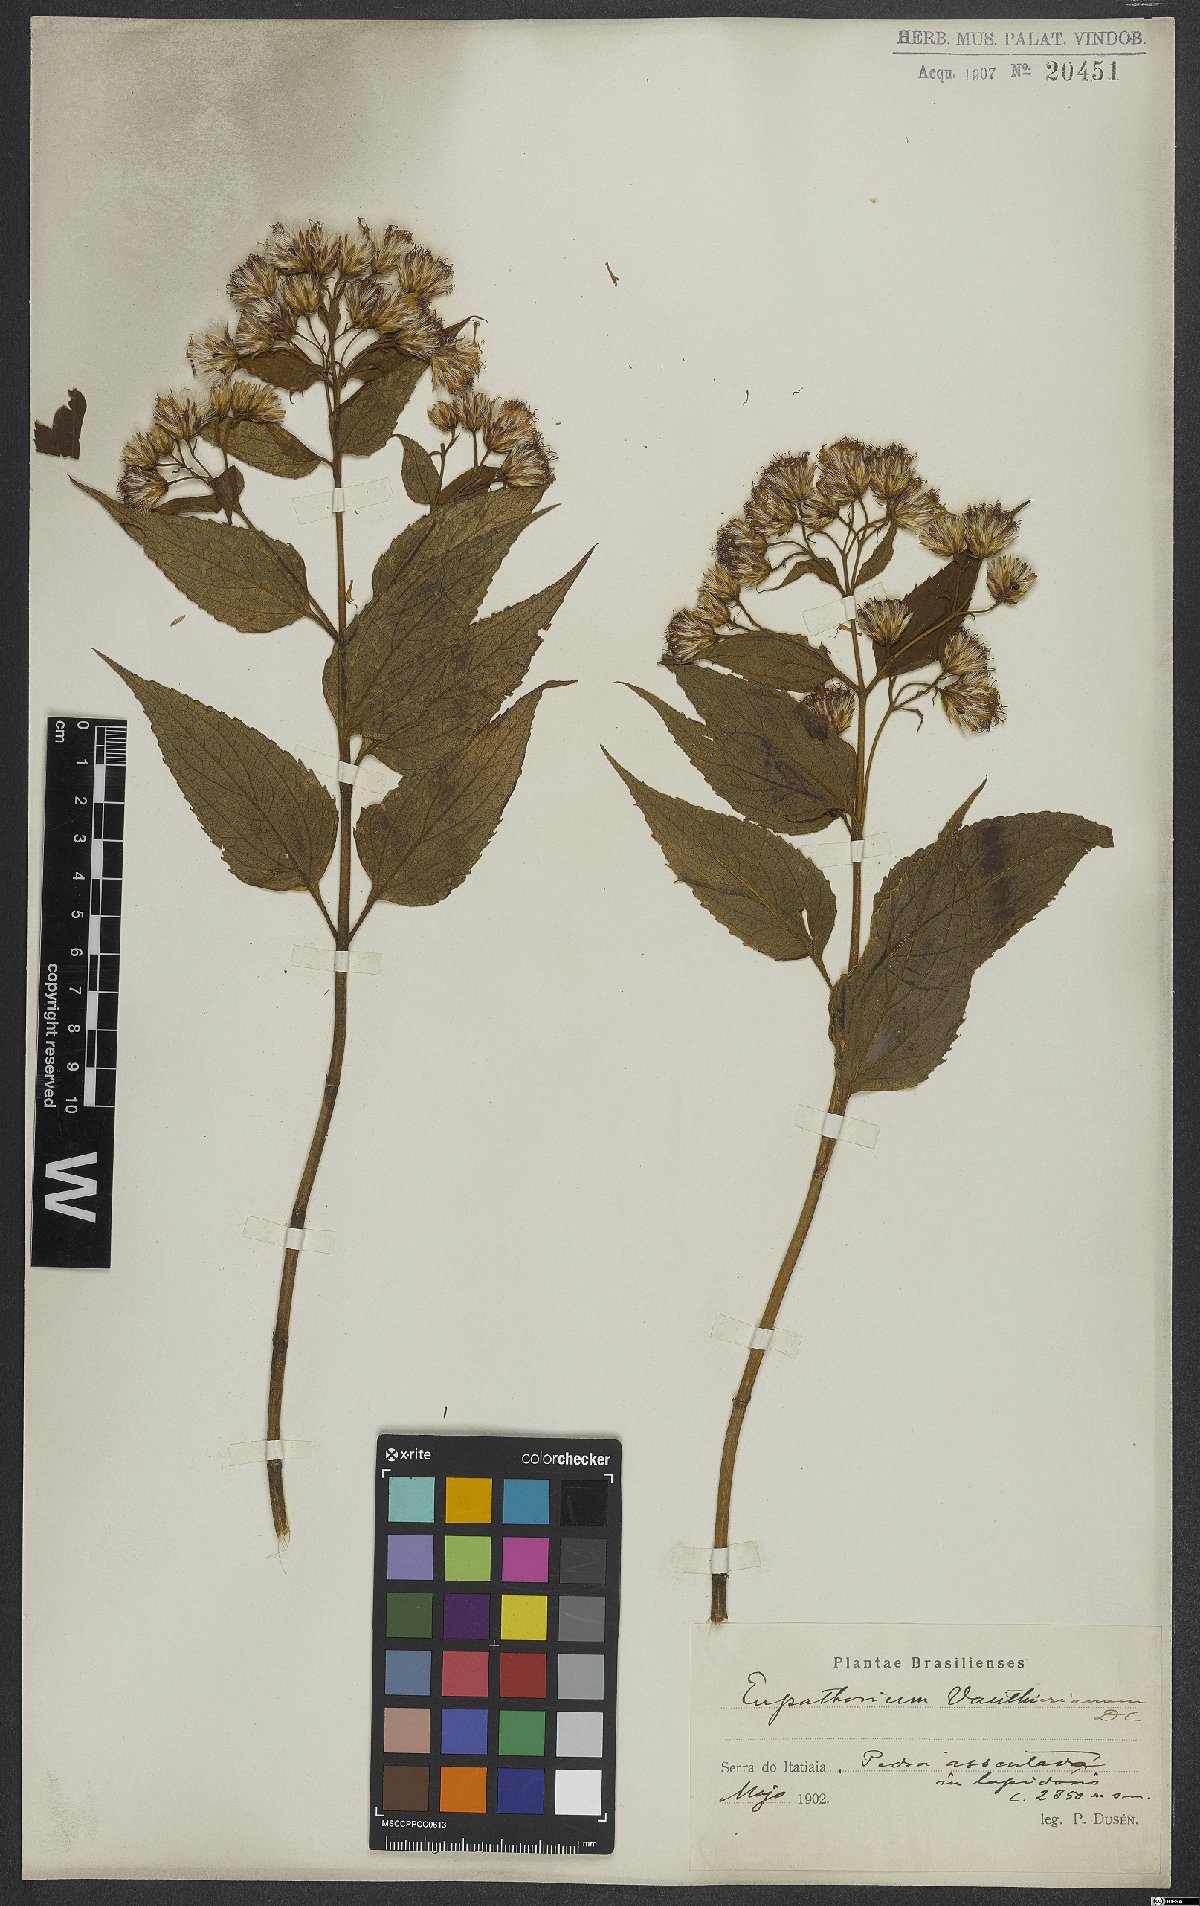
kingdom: Plantae
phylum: Tracheophyta
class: Magnoliopsida
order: Asterales
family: Asteraceae
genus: Heterocondylus
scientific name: Heterocondylus alatus
